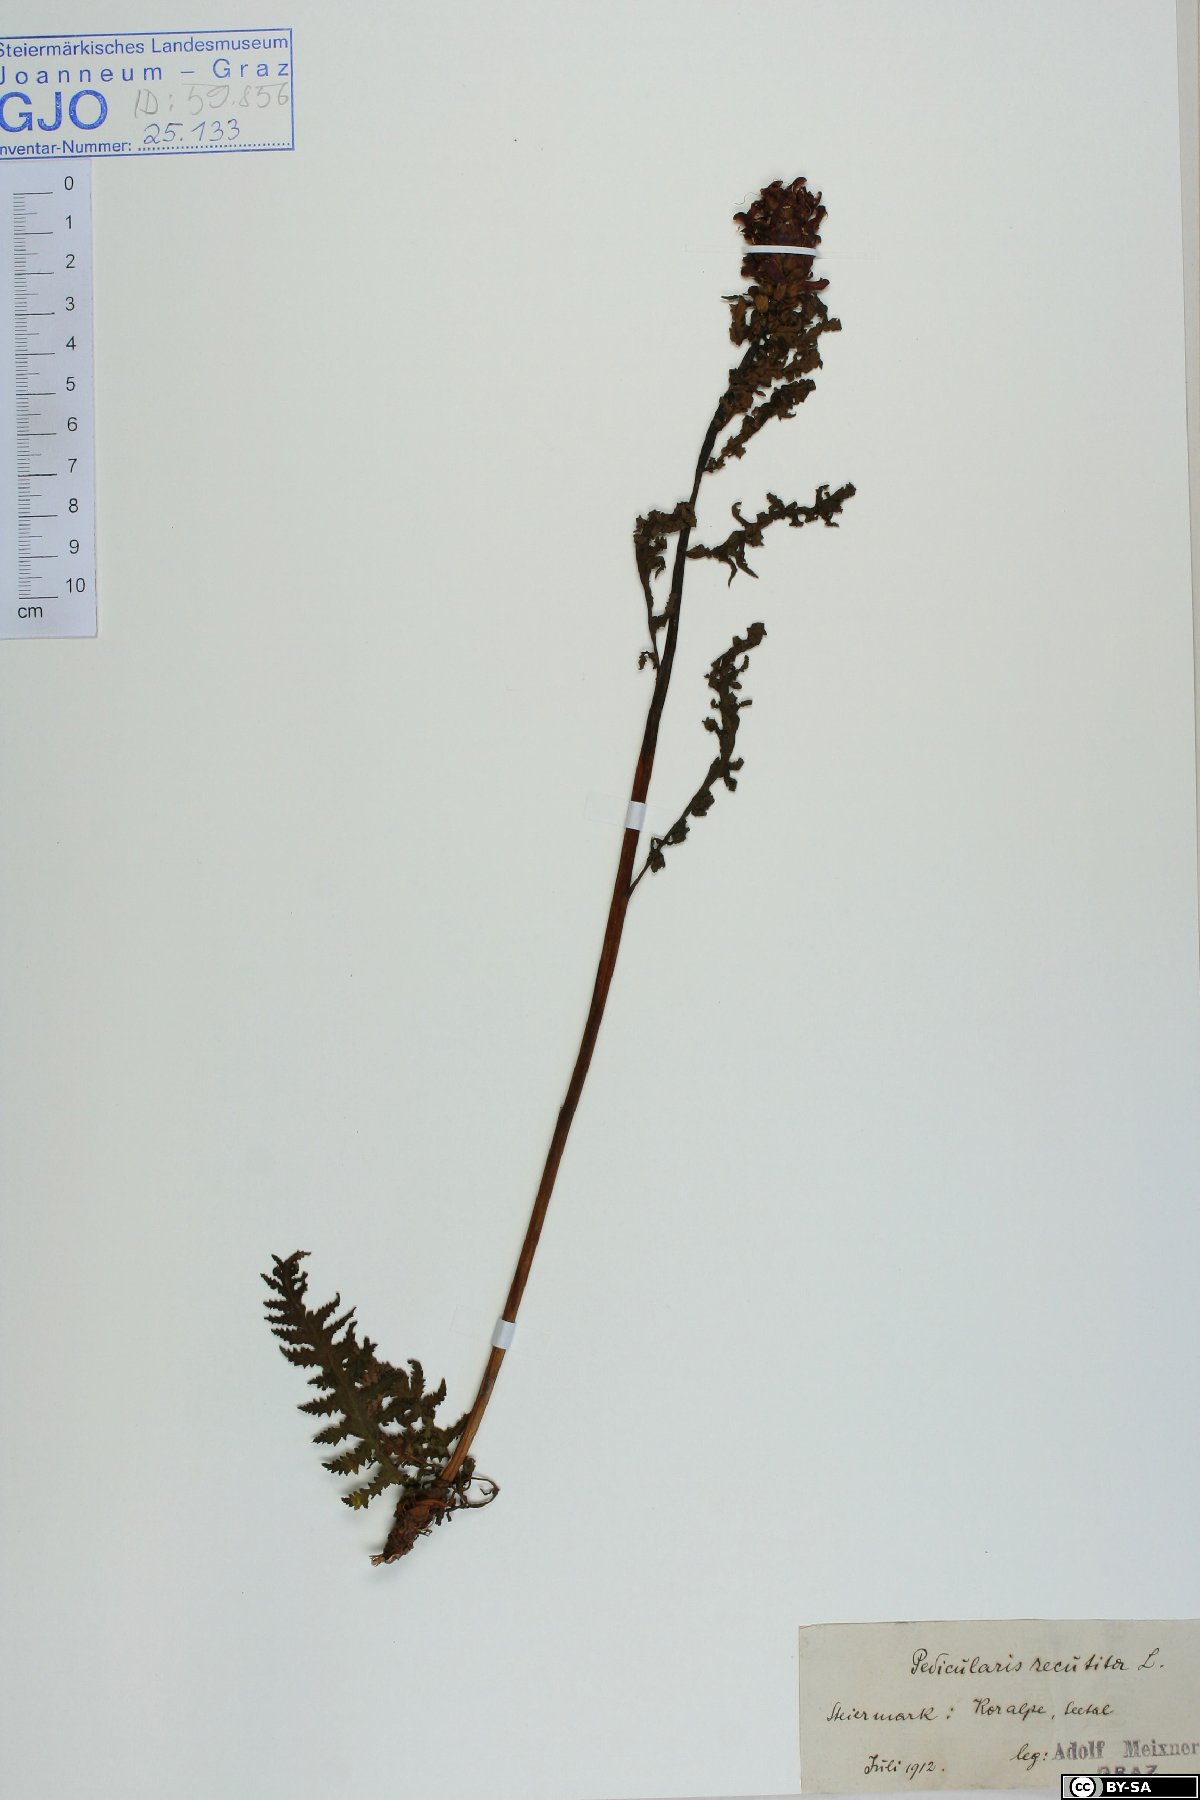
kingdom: Plantae
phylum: Tracheophyta
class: Magnoliopsida
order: Lamiales
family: Orobanchaceae
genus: Pedicularis
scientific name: Pedicularis recutita
